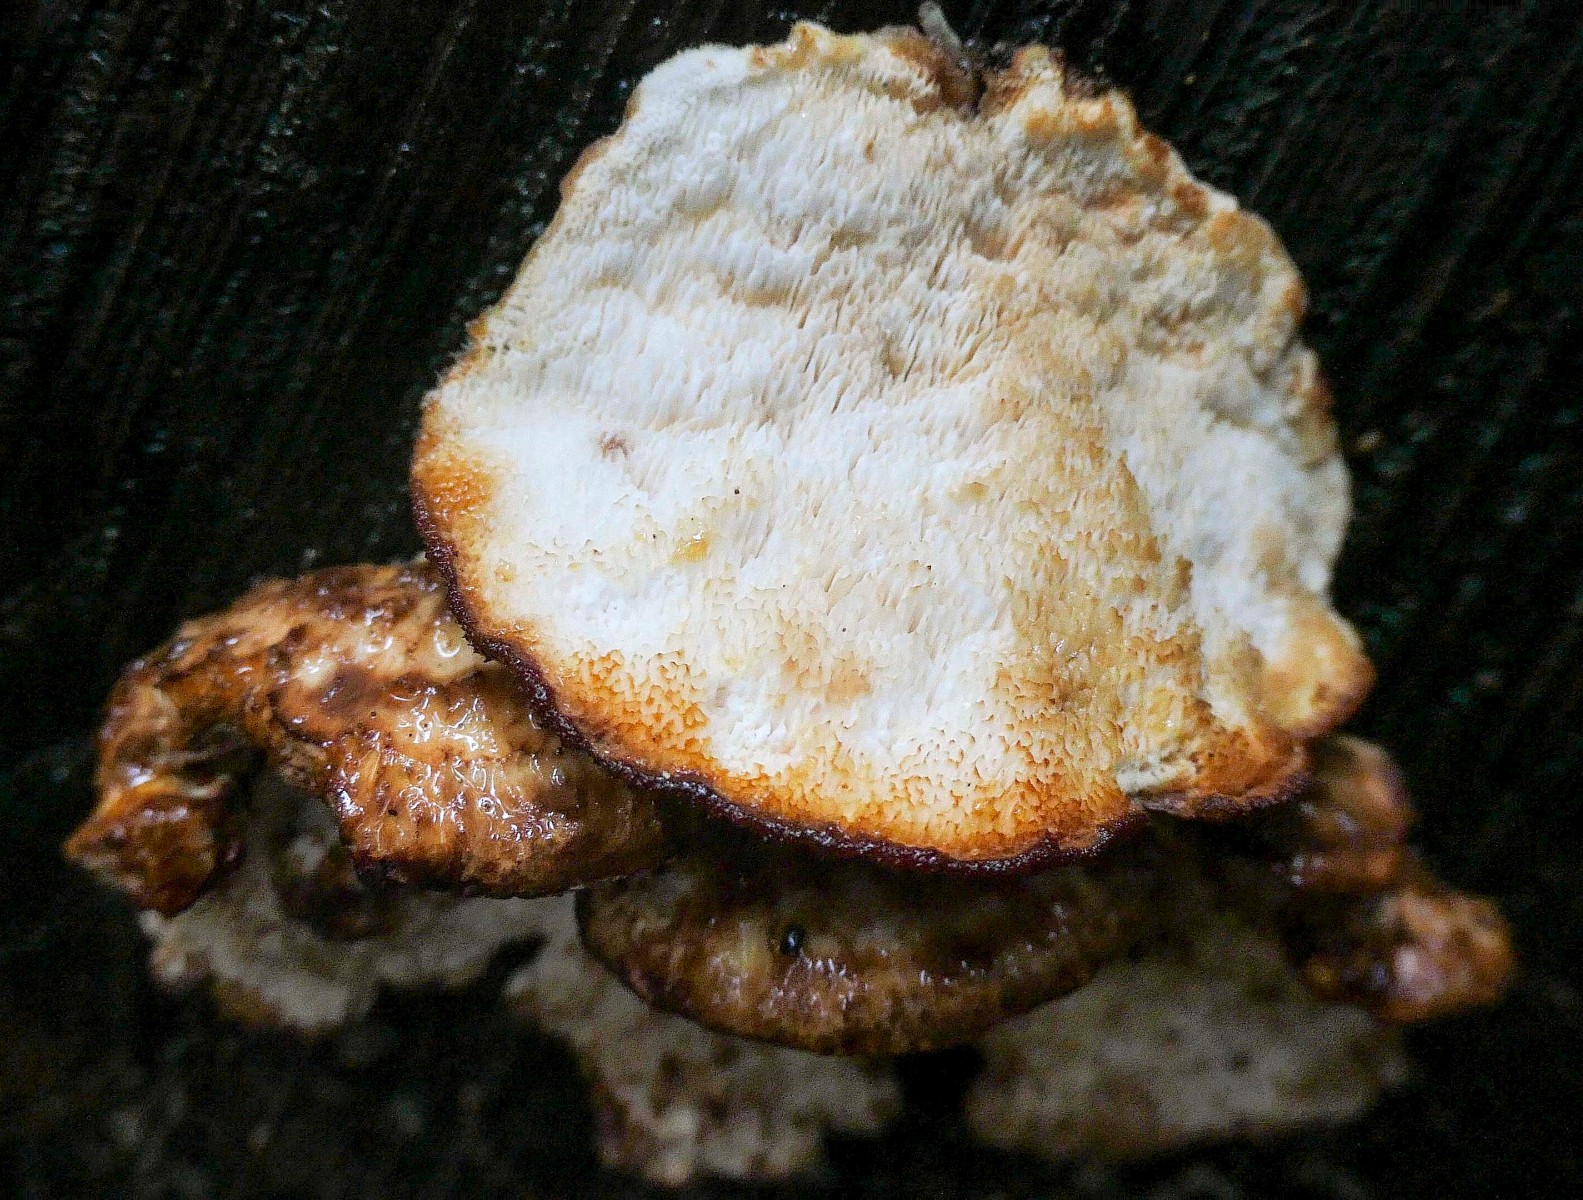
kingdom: Fungi
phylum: Basidiomycota
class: Agaricomycetes
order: Polyporales
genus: Fuscopostia
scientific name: Fuscopostia fragilis
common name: brunende kødporesvamp
